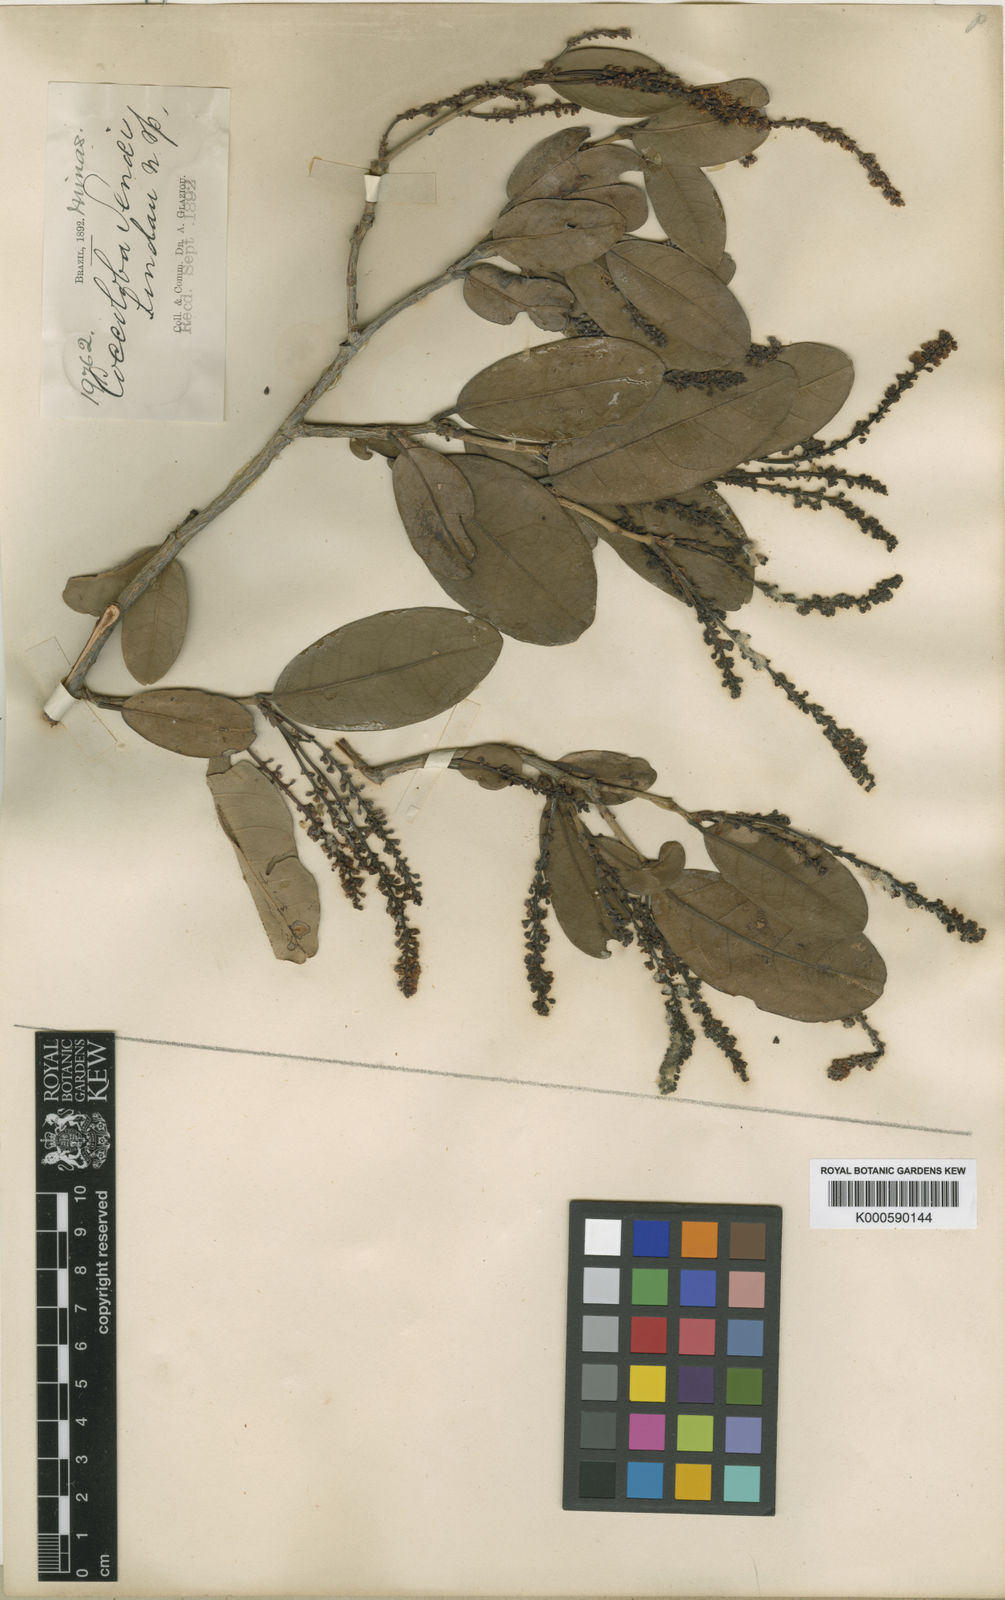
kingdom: Plantae
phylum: Tracheophyta
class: Magnoliopsida
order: Caryophyllales
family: Polygonaceae
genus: Coccoloba
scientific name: Coccoloba brasiliensis
